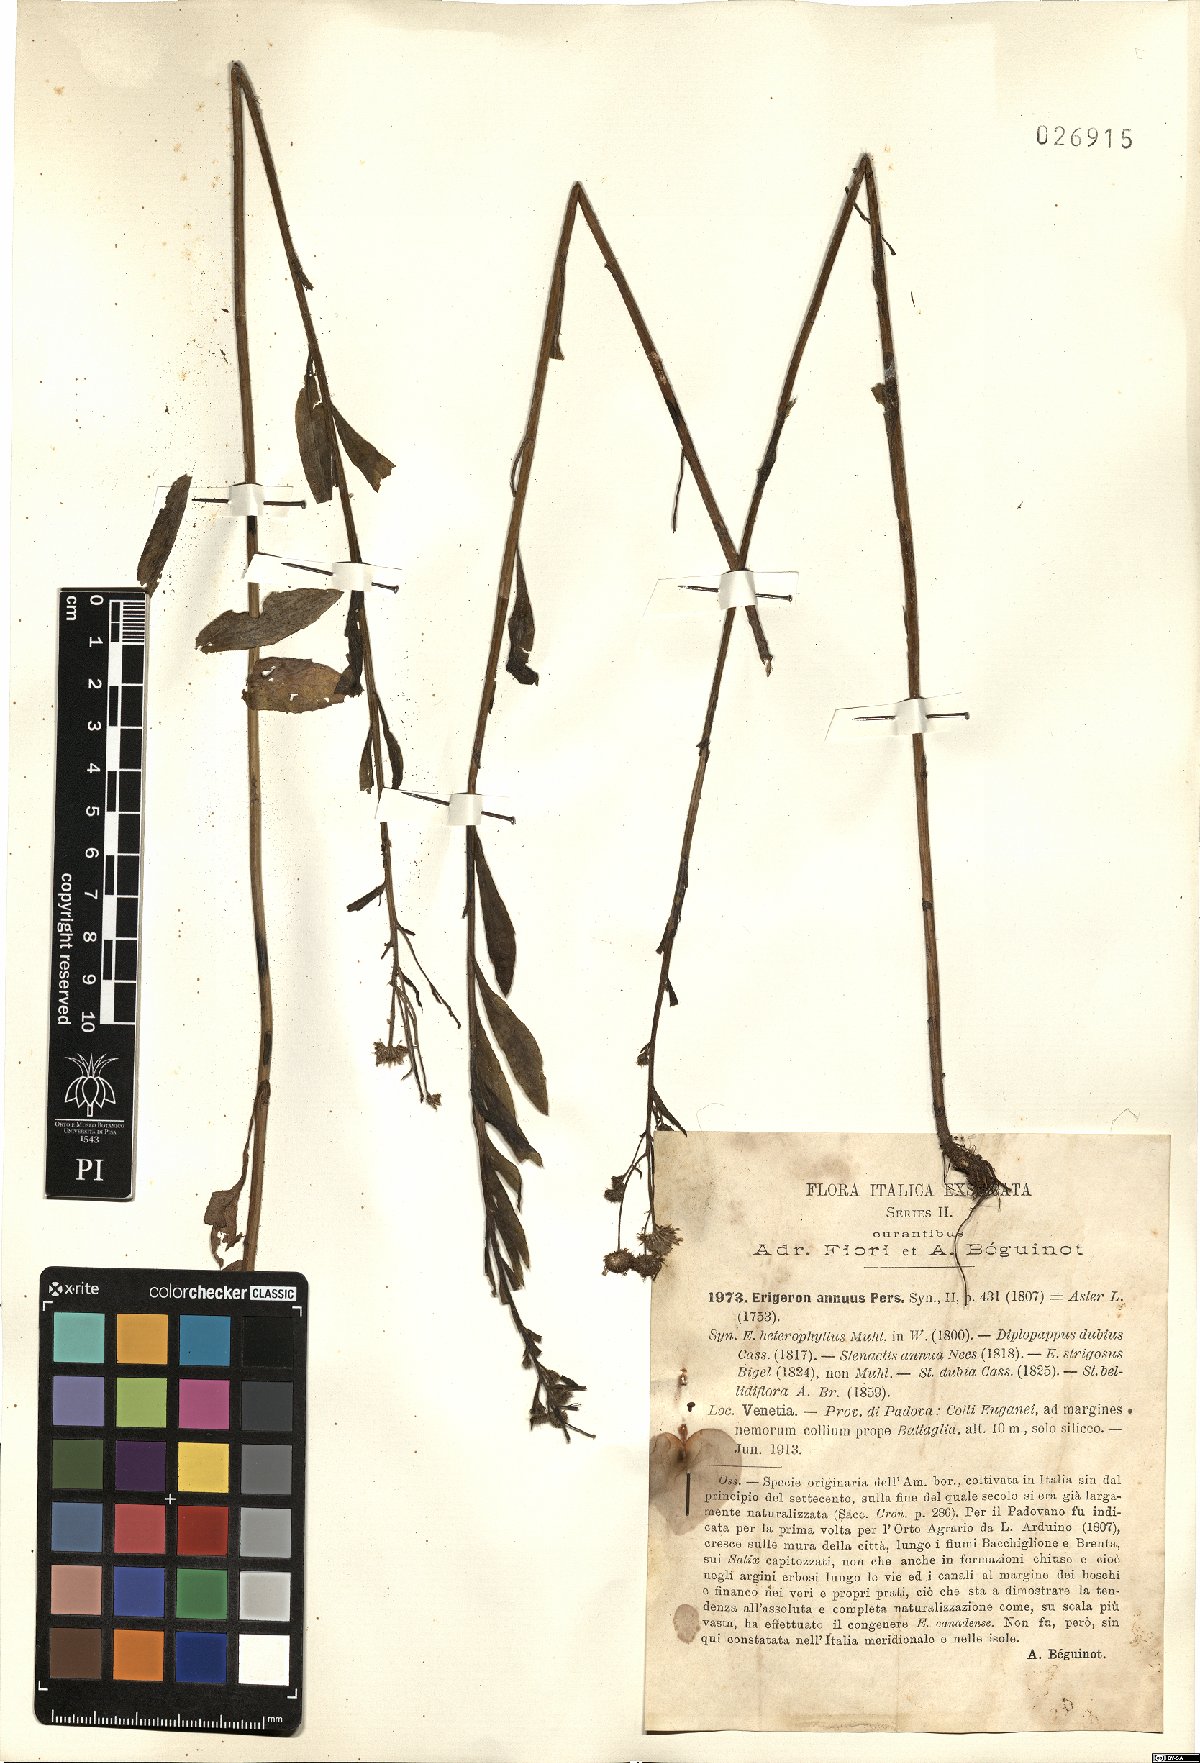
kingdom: Plantae
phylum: Tracheophyta
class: Magnoliopsida
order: Asterales
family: Asteraceae
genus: Erigeron
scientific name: Erigeron annuus
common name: Tall fleabane
